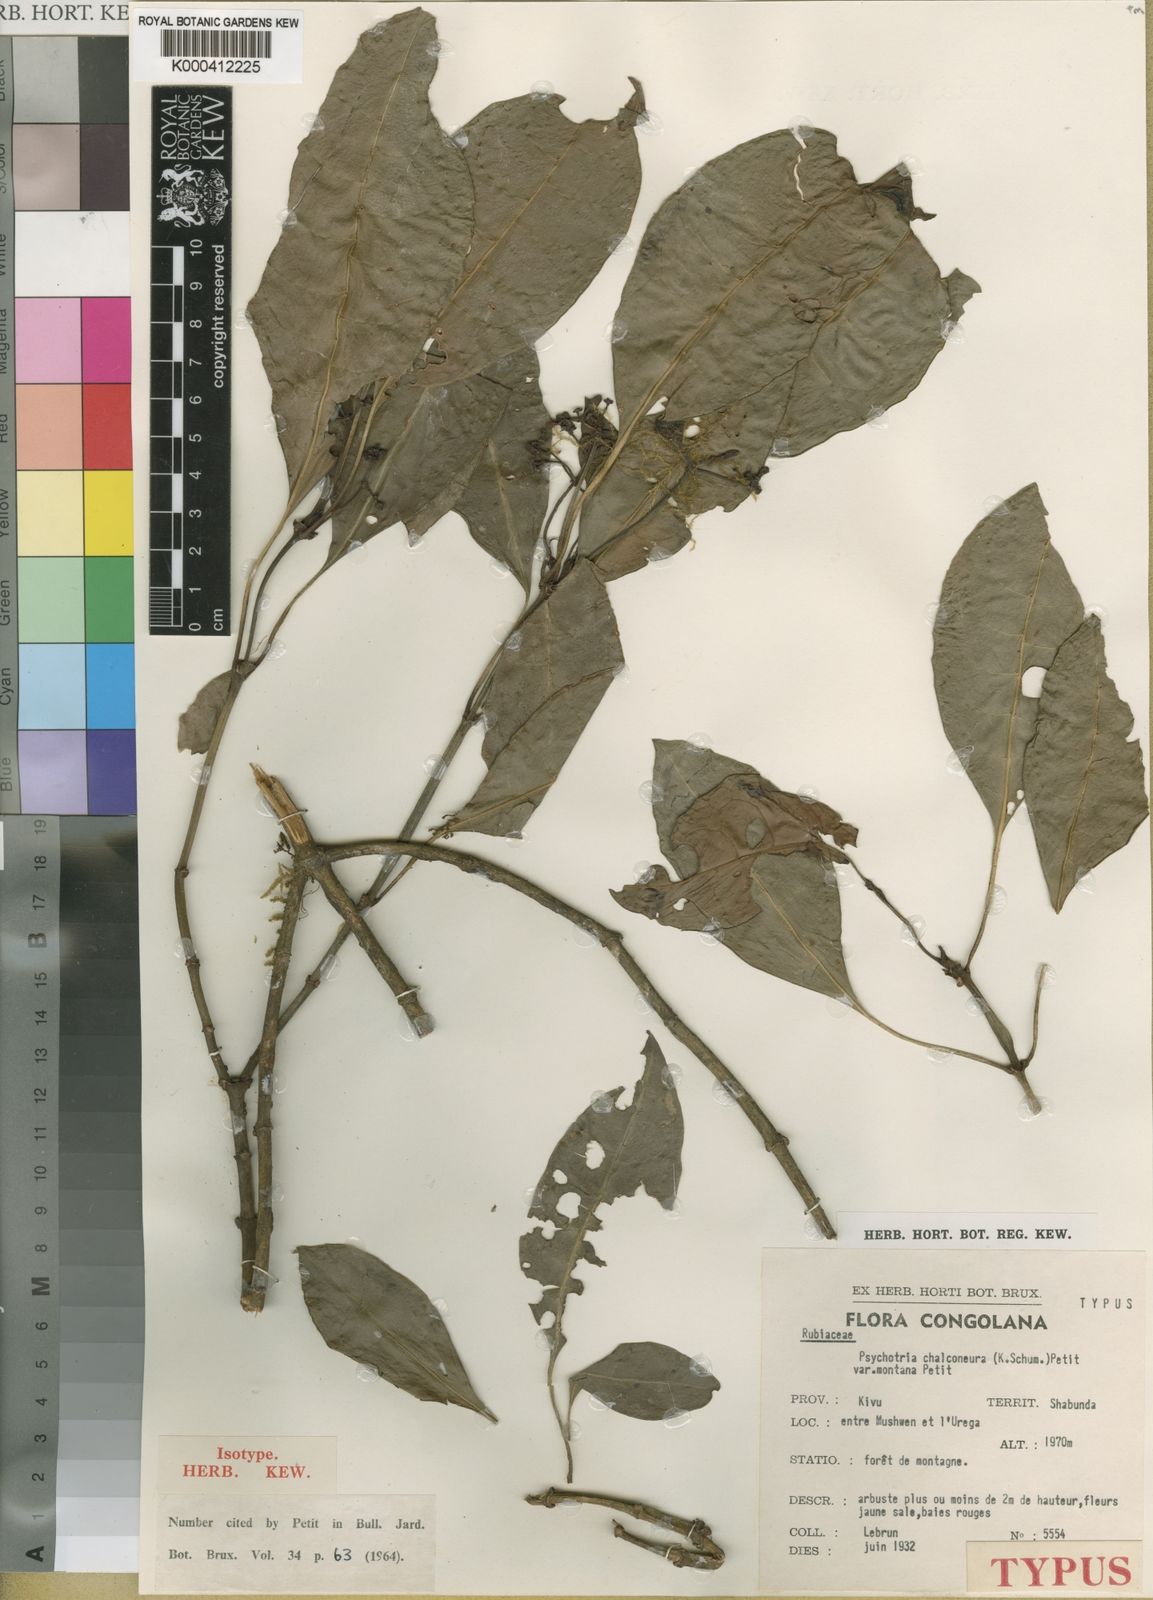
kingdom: Plantae
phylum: Tracheophyta
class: Magnoliopsida
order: Gentianales
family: Rubiaceae
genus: Psychotria
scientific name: Psychotria chalconeura
